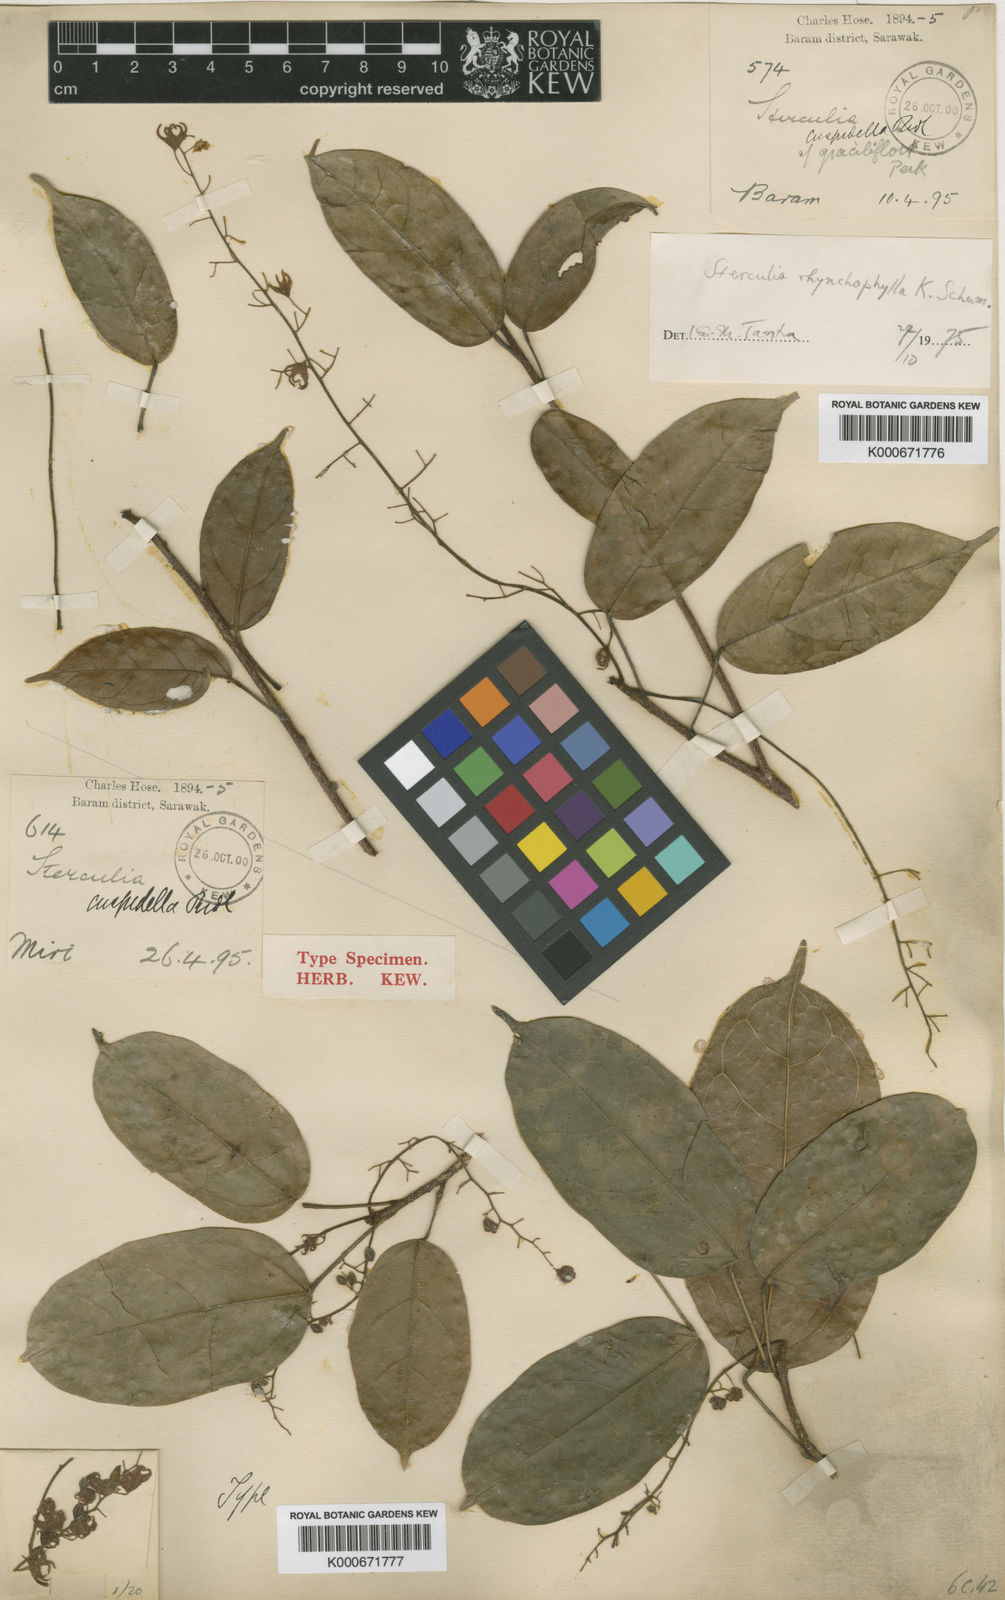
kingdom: Plantae
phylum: Tracheophyta
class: Magnoliopsida
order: Malvales
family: Malvaceae
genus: Sterculia
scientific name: Sterculia rhynchophylla
